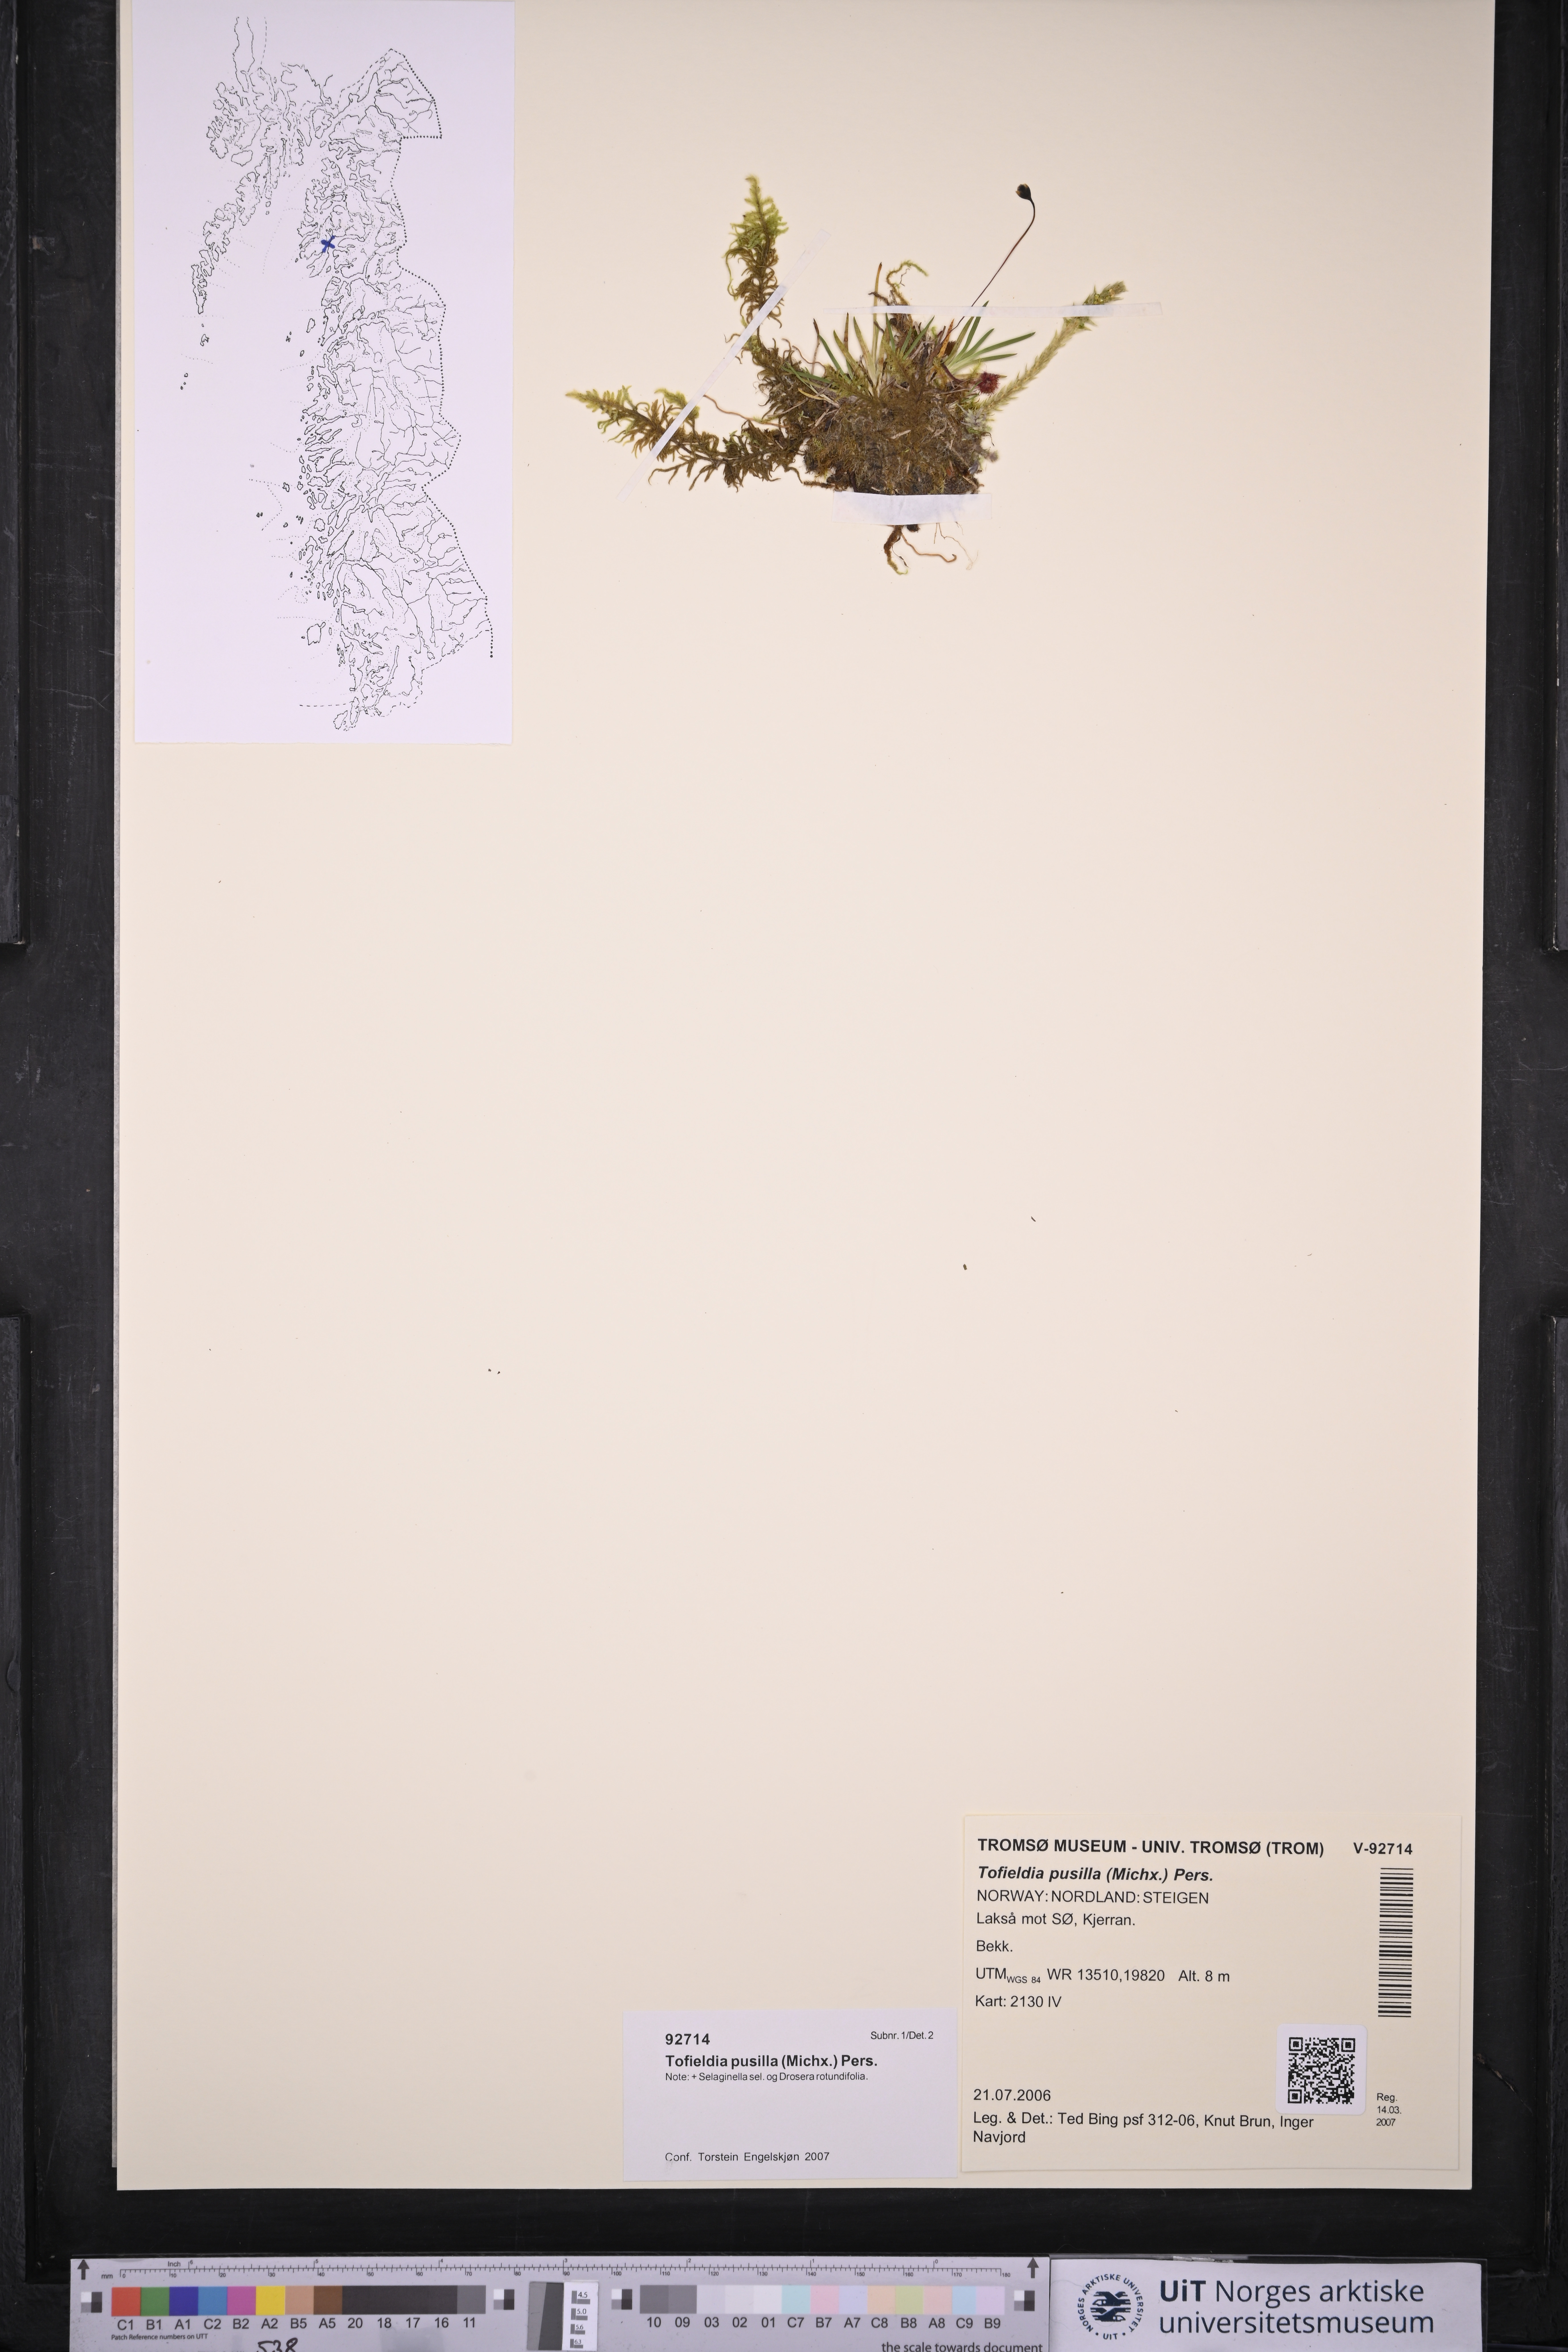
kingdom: Plantae
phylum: Tracheophyta
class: Liliopsida
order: Alismatales
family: Tofieldiaceae
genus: Tofieldia
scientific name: Tofieldia pusilla
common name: Scottish false asphodel
